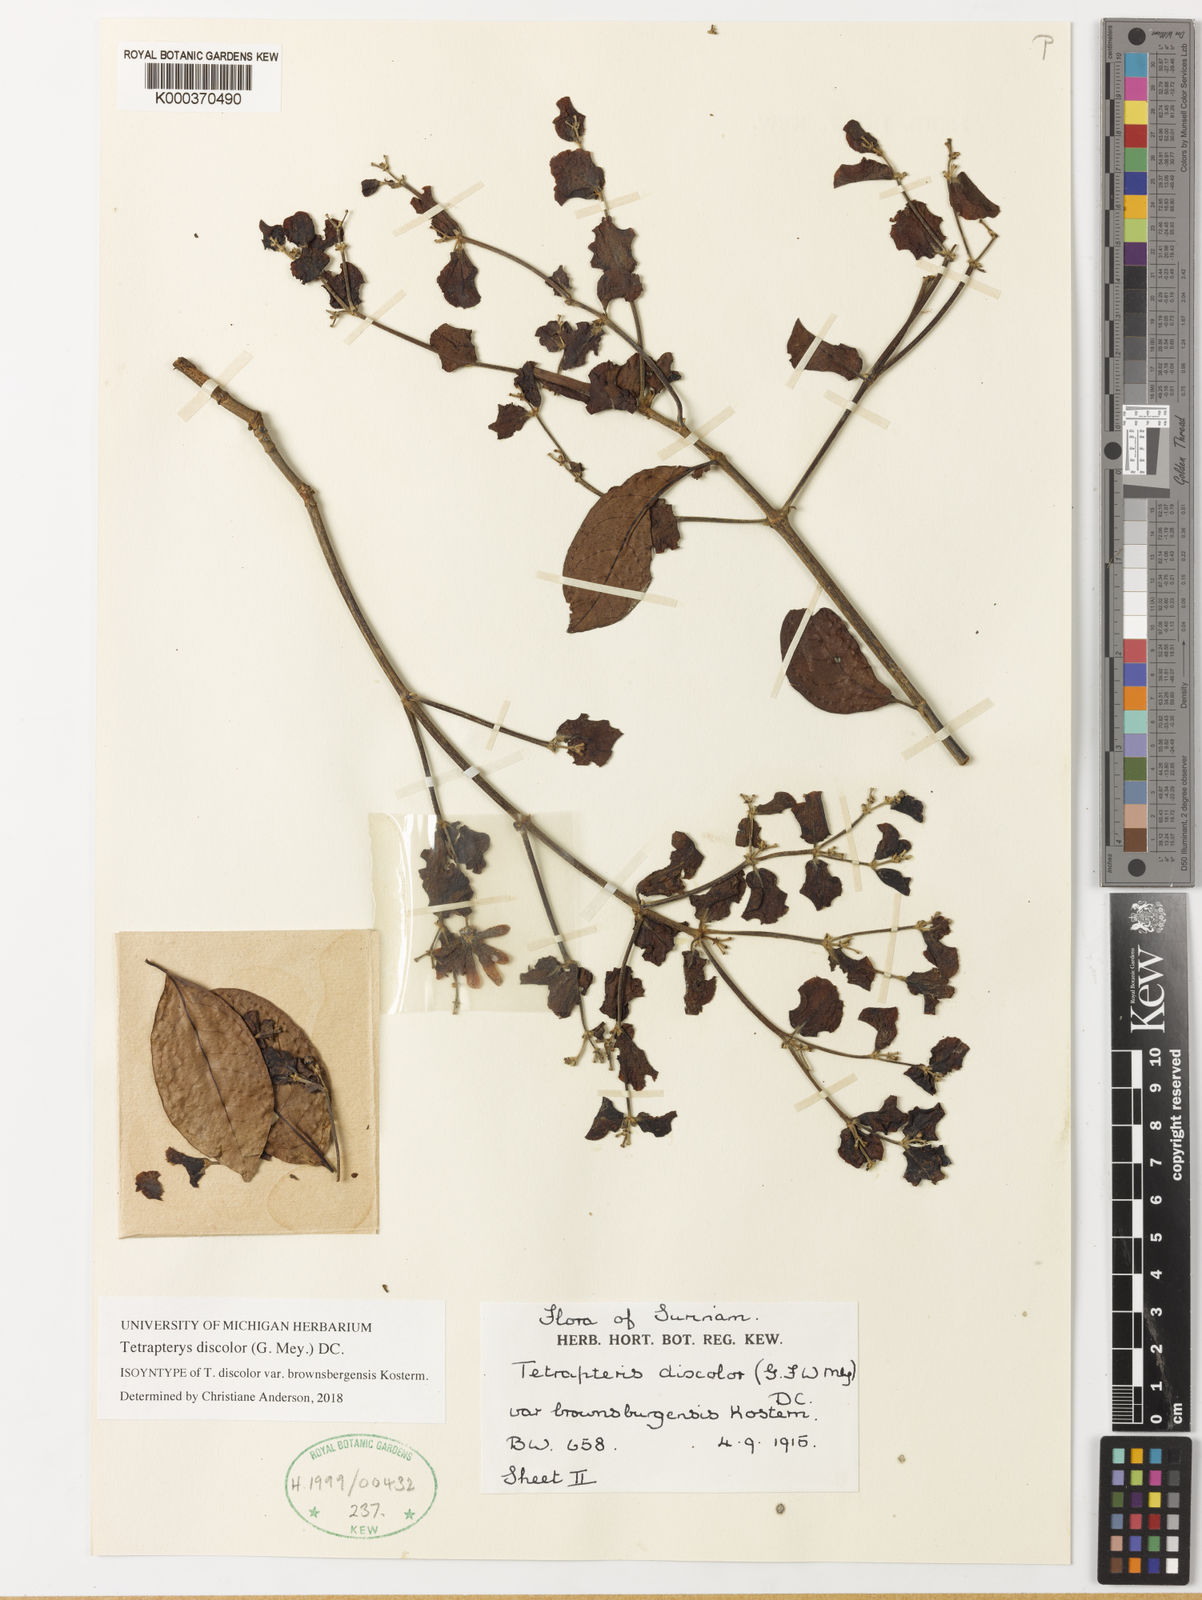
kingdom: Plantae
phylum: Tracheophyta
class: Magnoliopsida
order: Malpighiales
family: Malpighiaceae
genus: Tetrapterys
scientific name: Tetrapterys discolor
